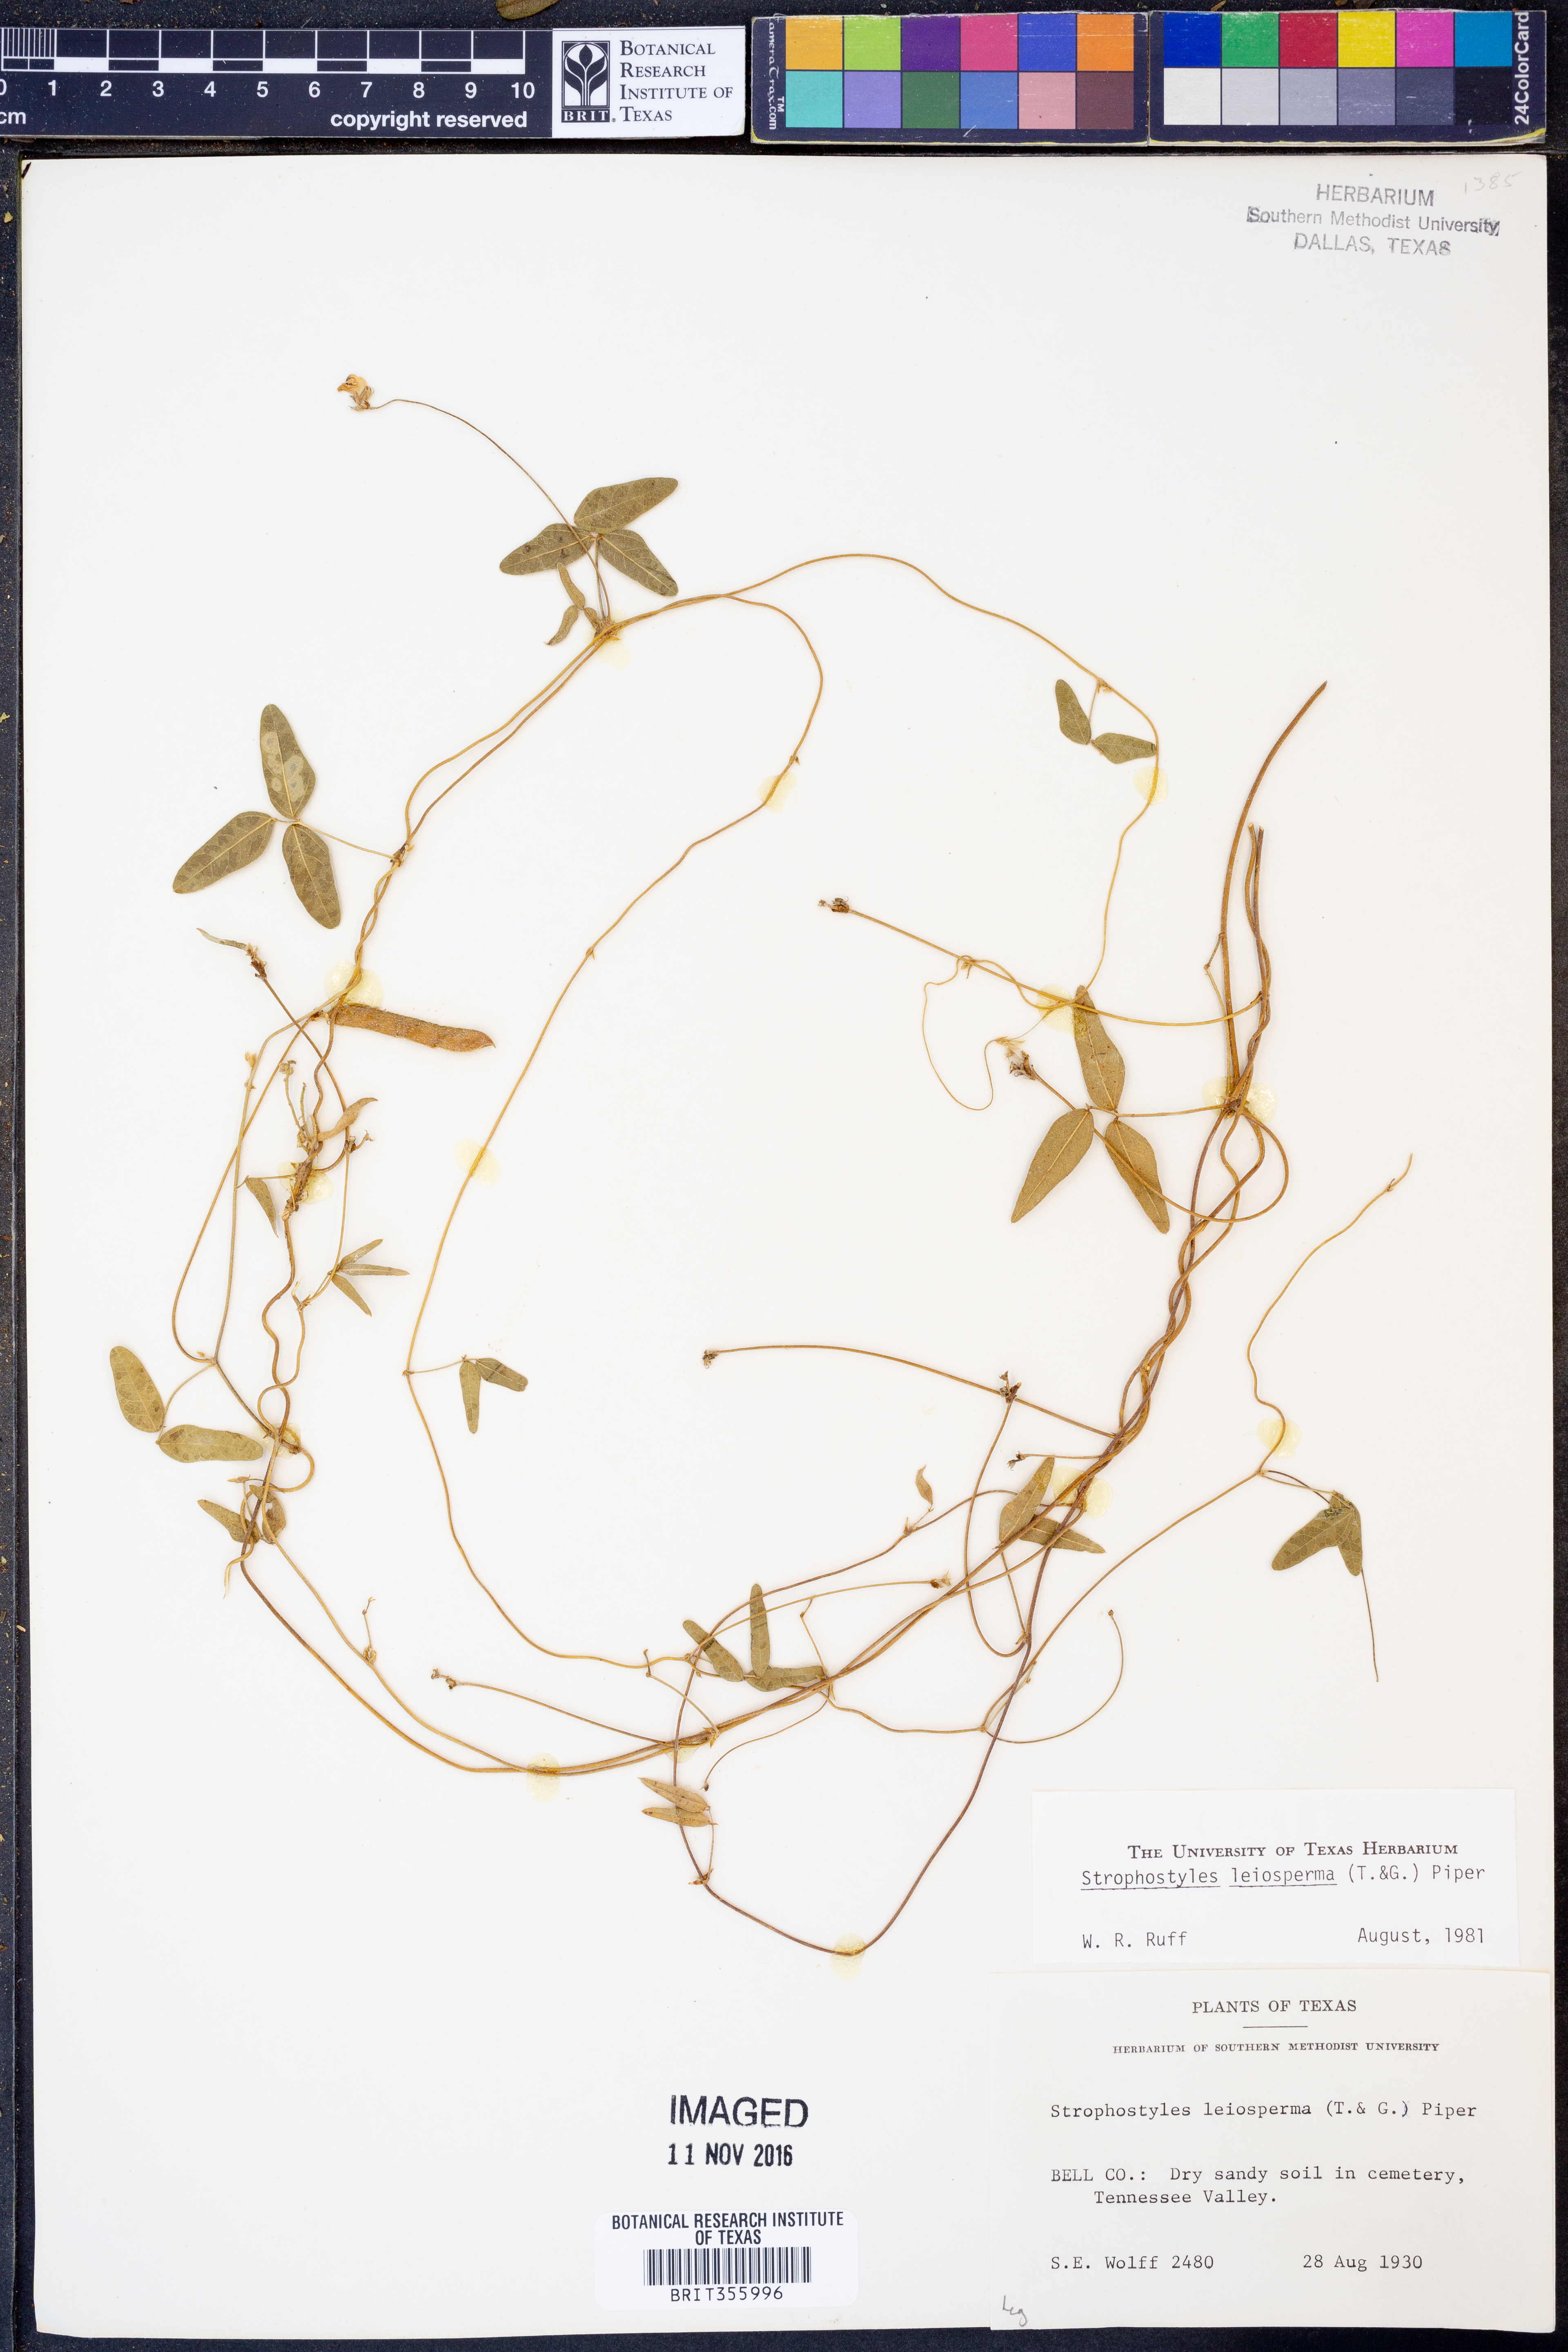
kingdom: Plantae
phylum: Tracheophyta
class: Magnoliopsida
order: Fabales
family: Fabaceae
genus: Strophostyles
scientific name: Strophostyles leiosperma
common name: Smooth-seed wild bean
